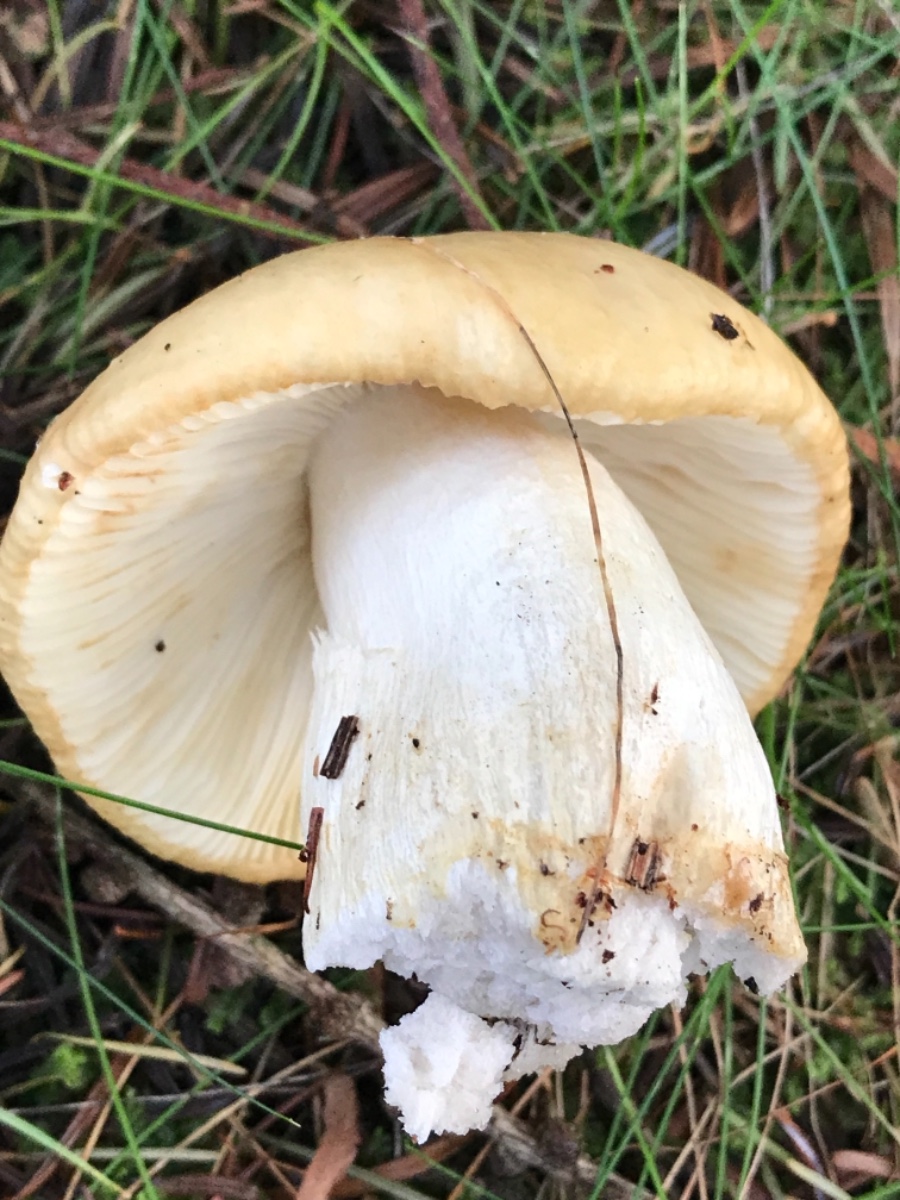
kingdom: Fungi
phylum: Basidiomycota
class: Agaricomycetes
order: Russulales
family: Russulaceae
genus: Russula
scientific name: Russula ochroleuca
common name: okkergul skørhat
